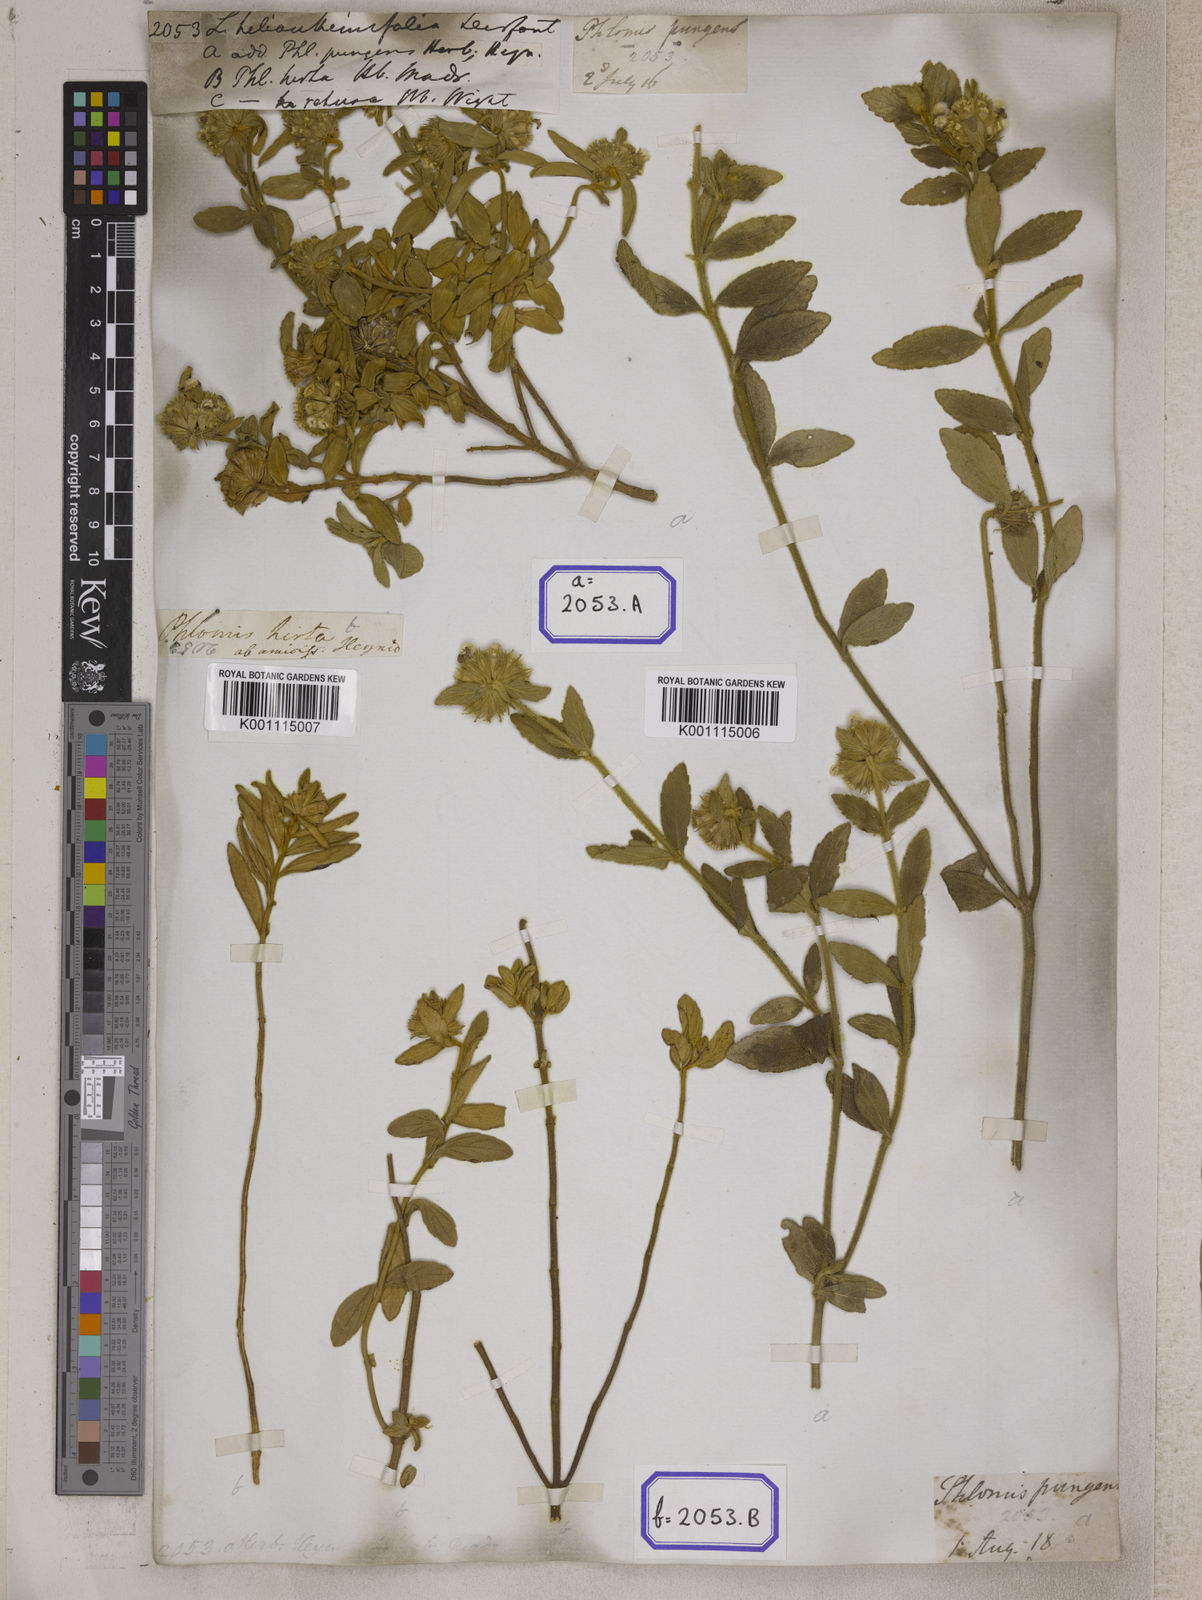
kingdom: Plantae
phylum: Tracheophyta
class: Magnoliopsida
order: Lamiales
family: Lamiaceae
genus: Leucas
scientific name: Leucas helianthemifolia
